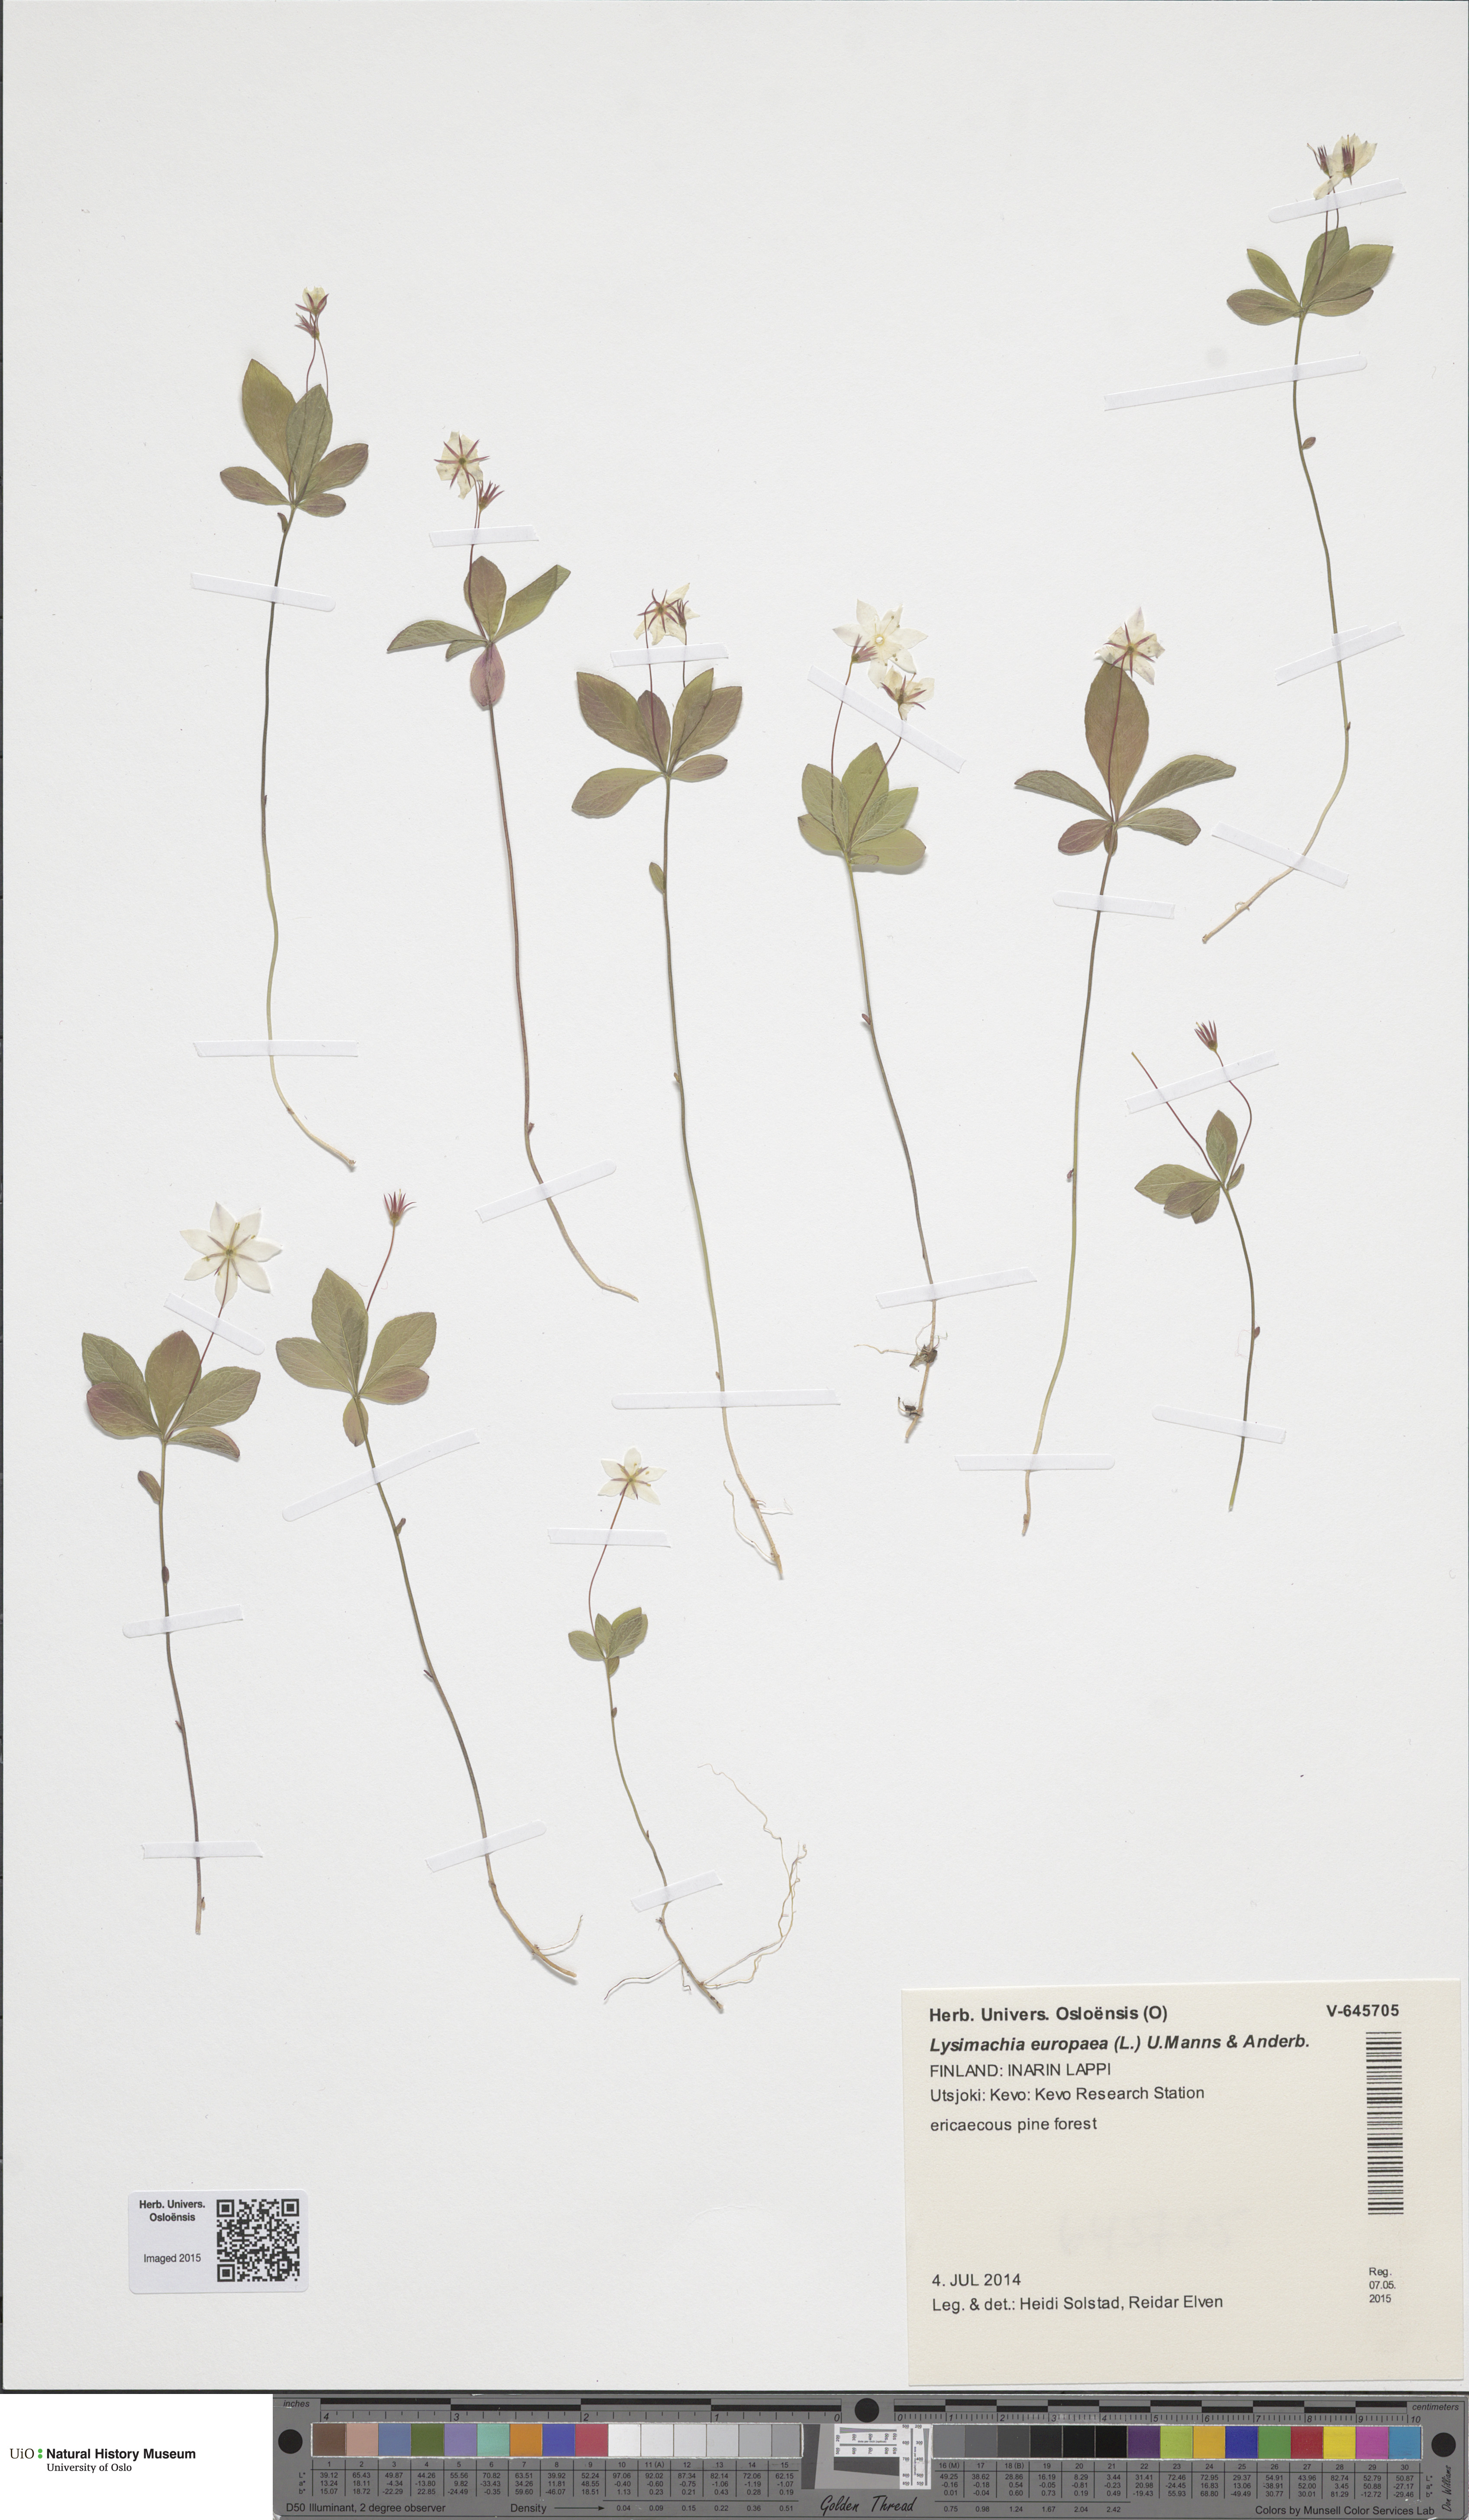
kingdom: Plantae
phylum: Tracheophyta
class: Magnoliopsida
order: Ericales
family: Primulaceae
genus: Lysimachia
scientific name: Lysimachia europaea
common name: Arctic starflower
